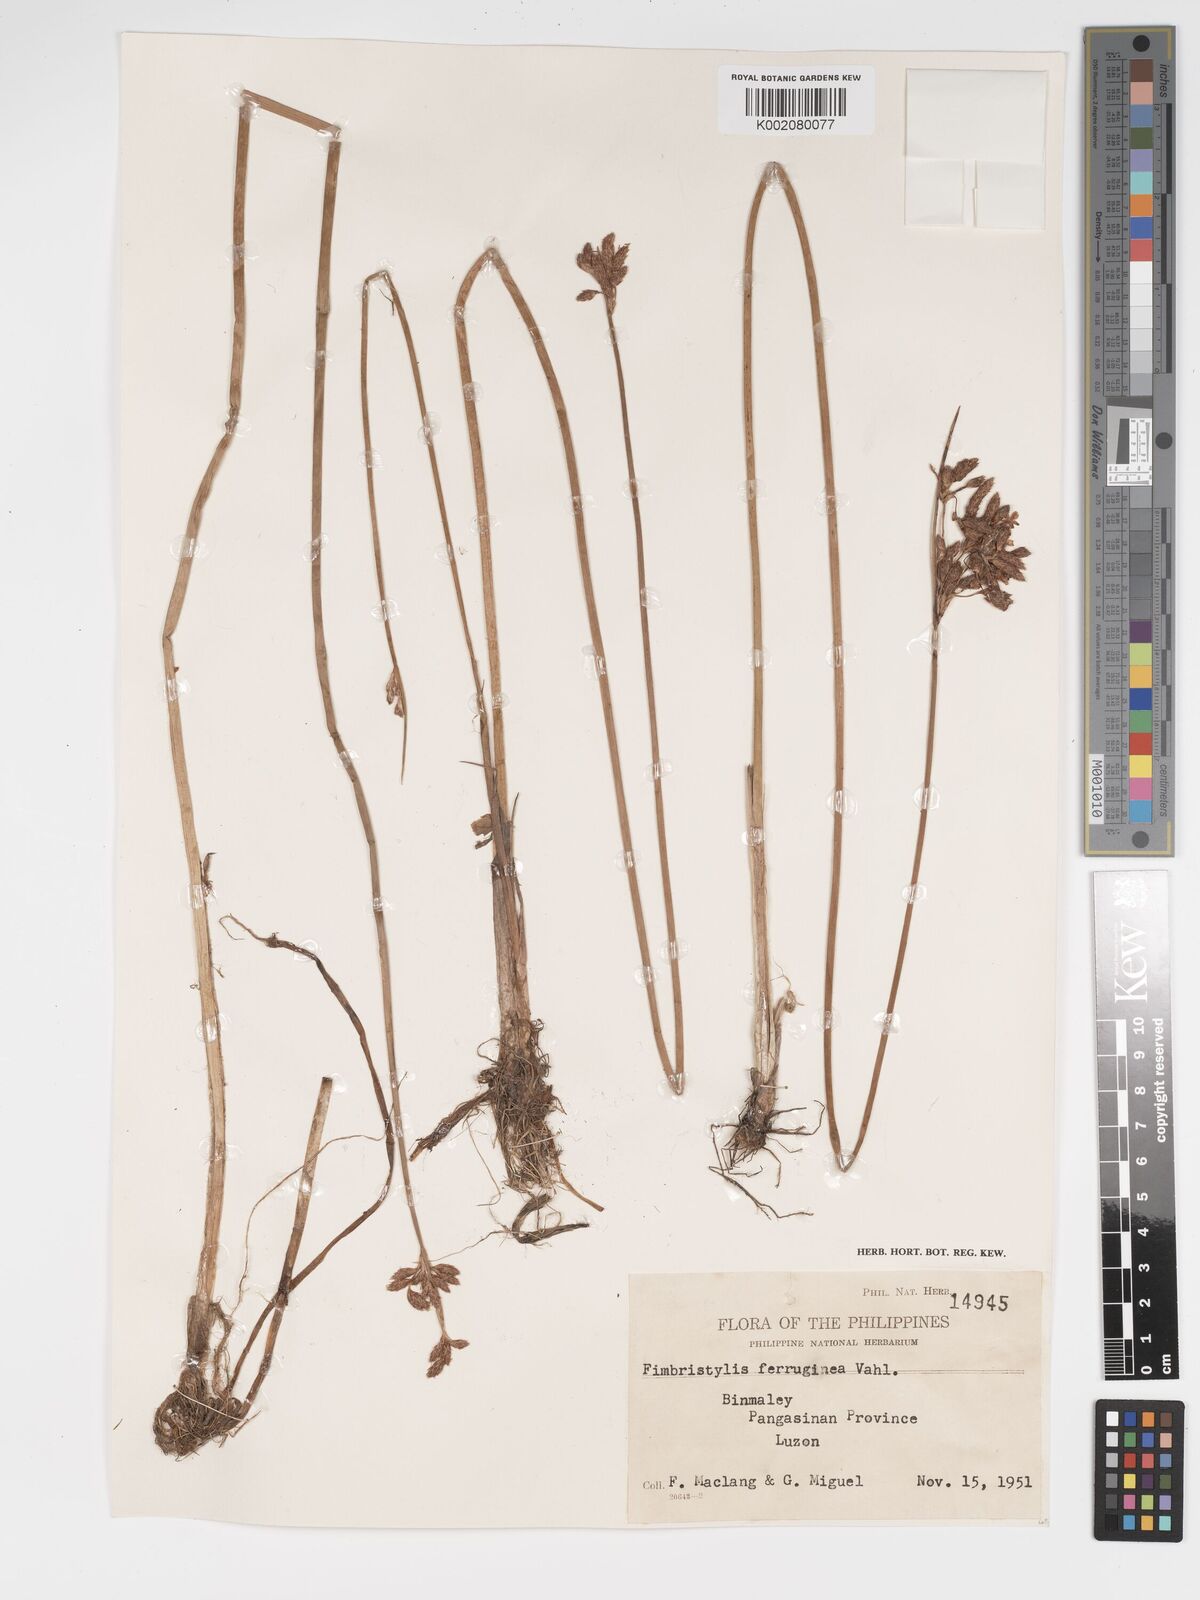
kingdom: Plantae
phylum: Tracheophyta
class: Liliopsida
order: Poales
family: Cyperaceae
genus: Fimbristylis
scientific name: Fimbristylis ferruginea
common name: West indian fimbry
